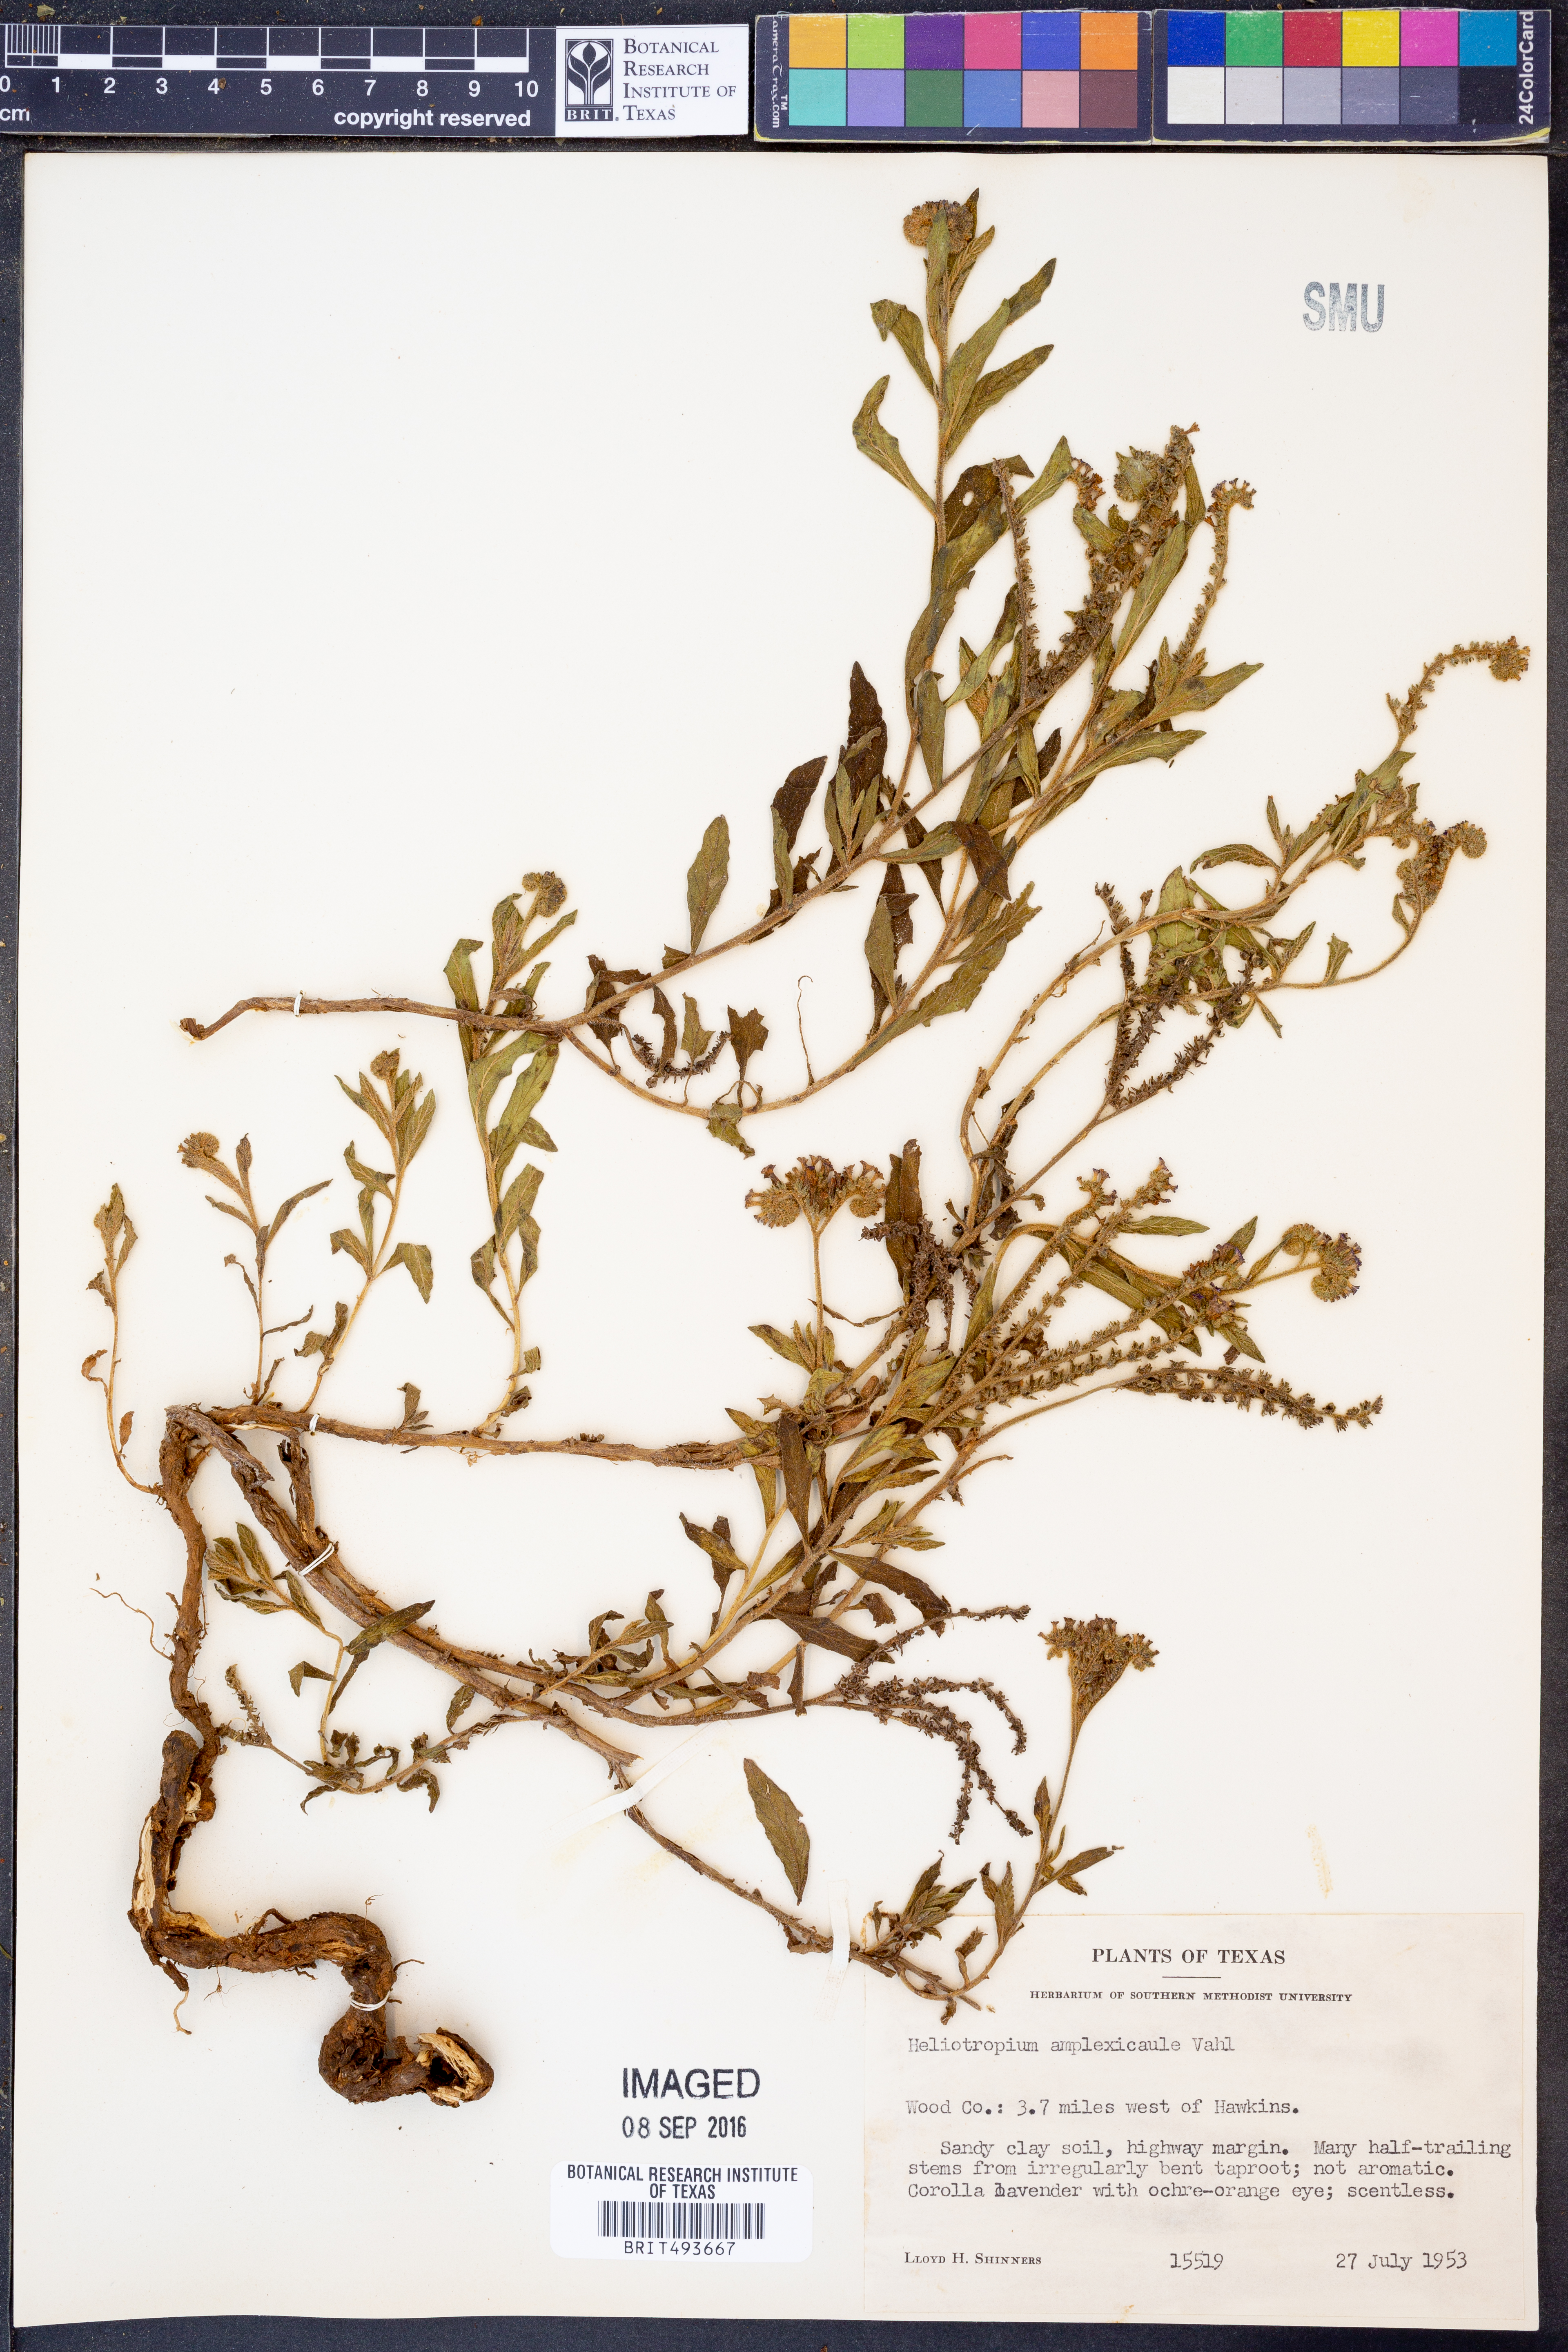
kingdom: Plantae
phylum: Tracheophyta
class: Magnoliopsida
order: Boraginales
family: Heliotropiaceae
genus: Heliotropium
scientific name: Heliotropium amplexicaule
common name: Clasping heliotrope
